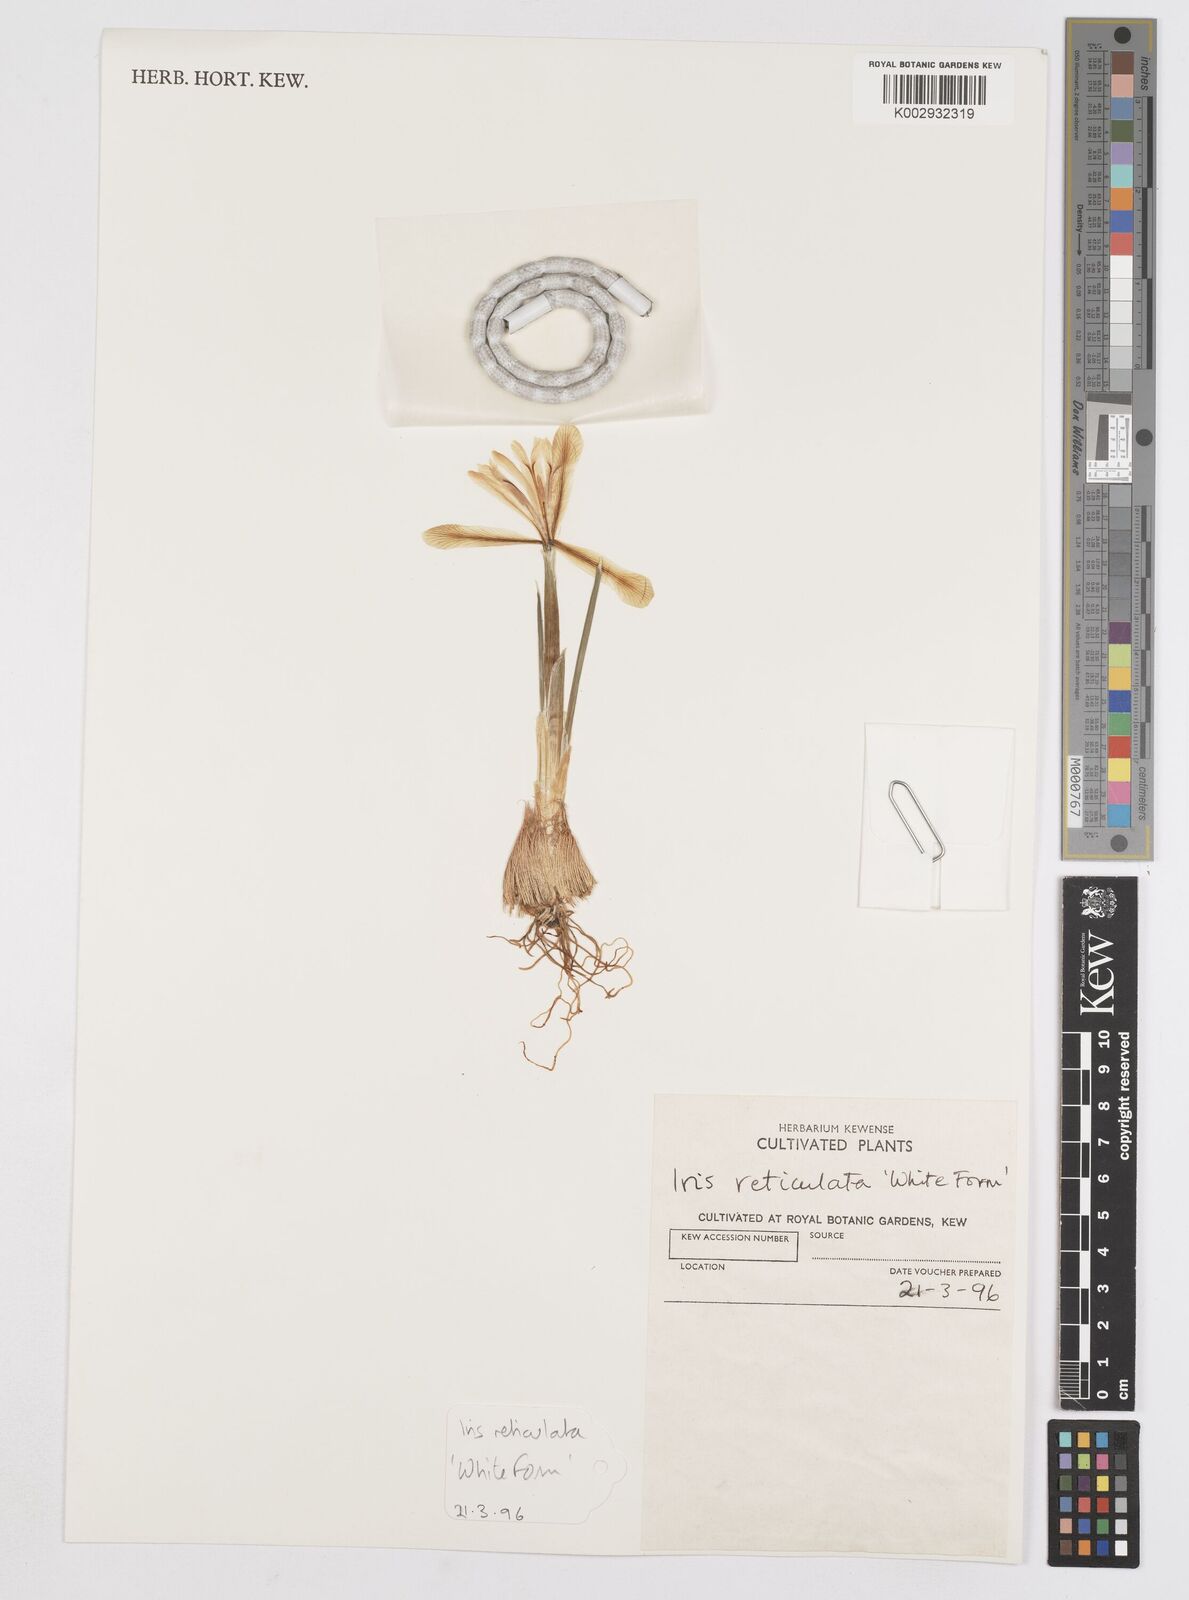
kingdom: Plantae
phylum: Tracheophyta
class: Liliopsida
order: Asparagales
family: Iridaceae
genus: Iris
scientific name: Iris reticulata
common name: Netted iris
